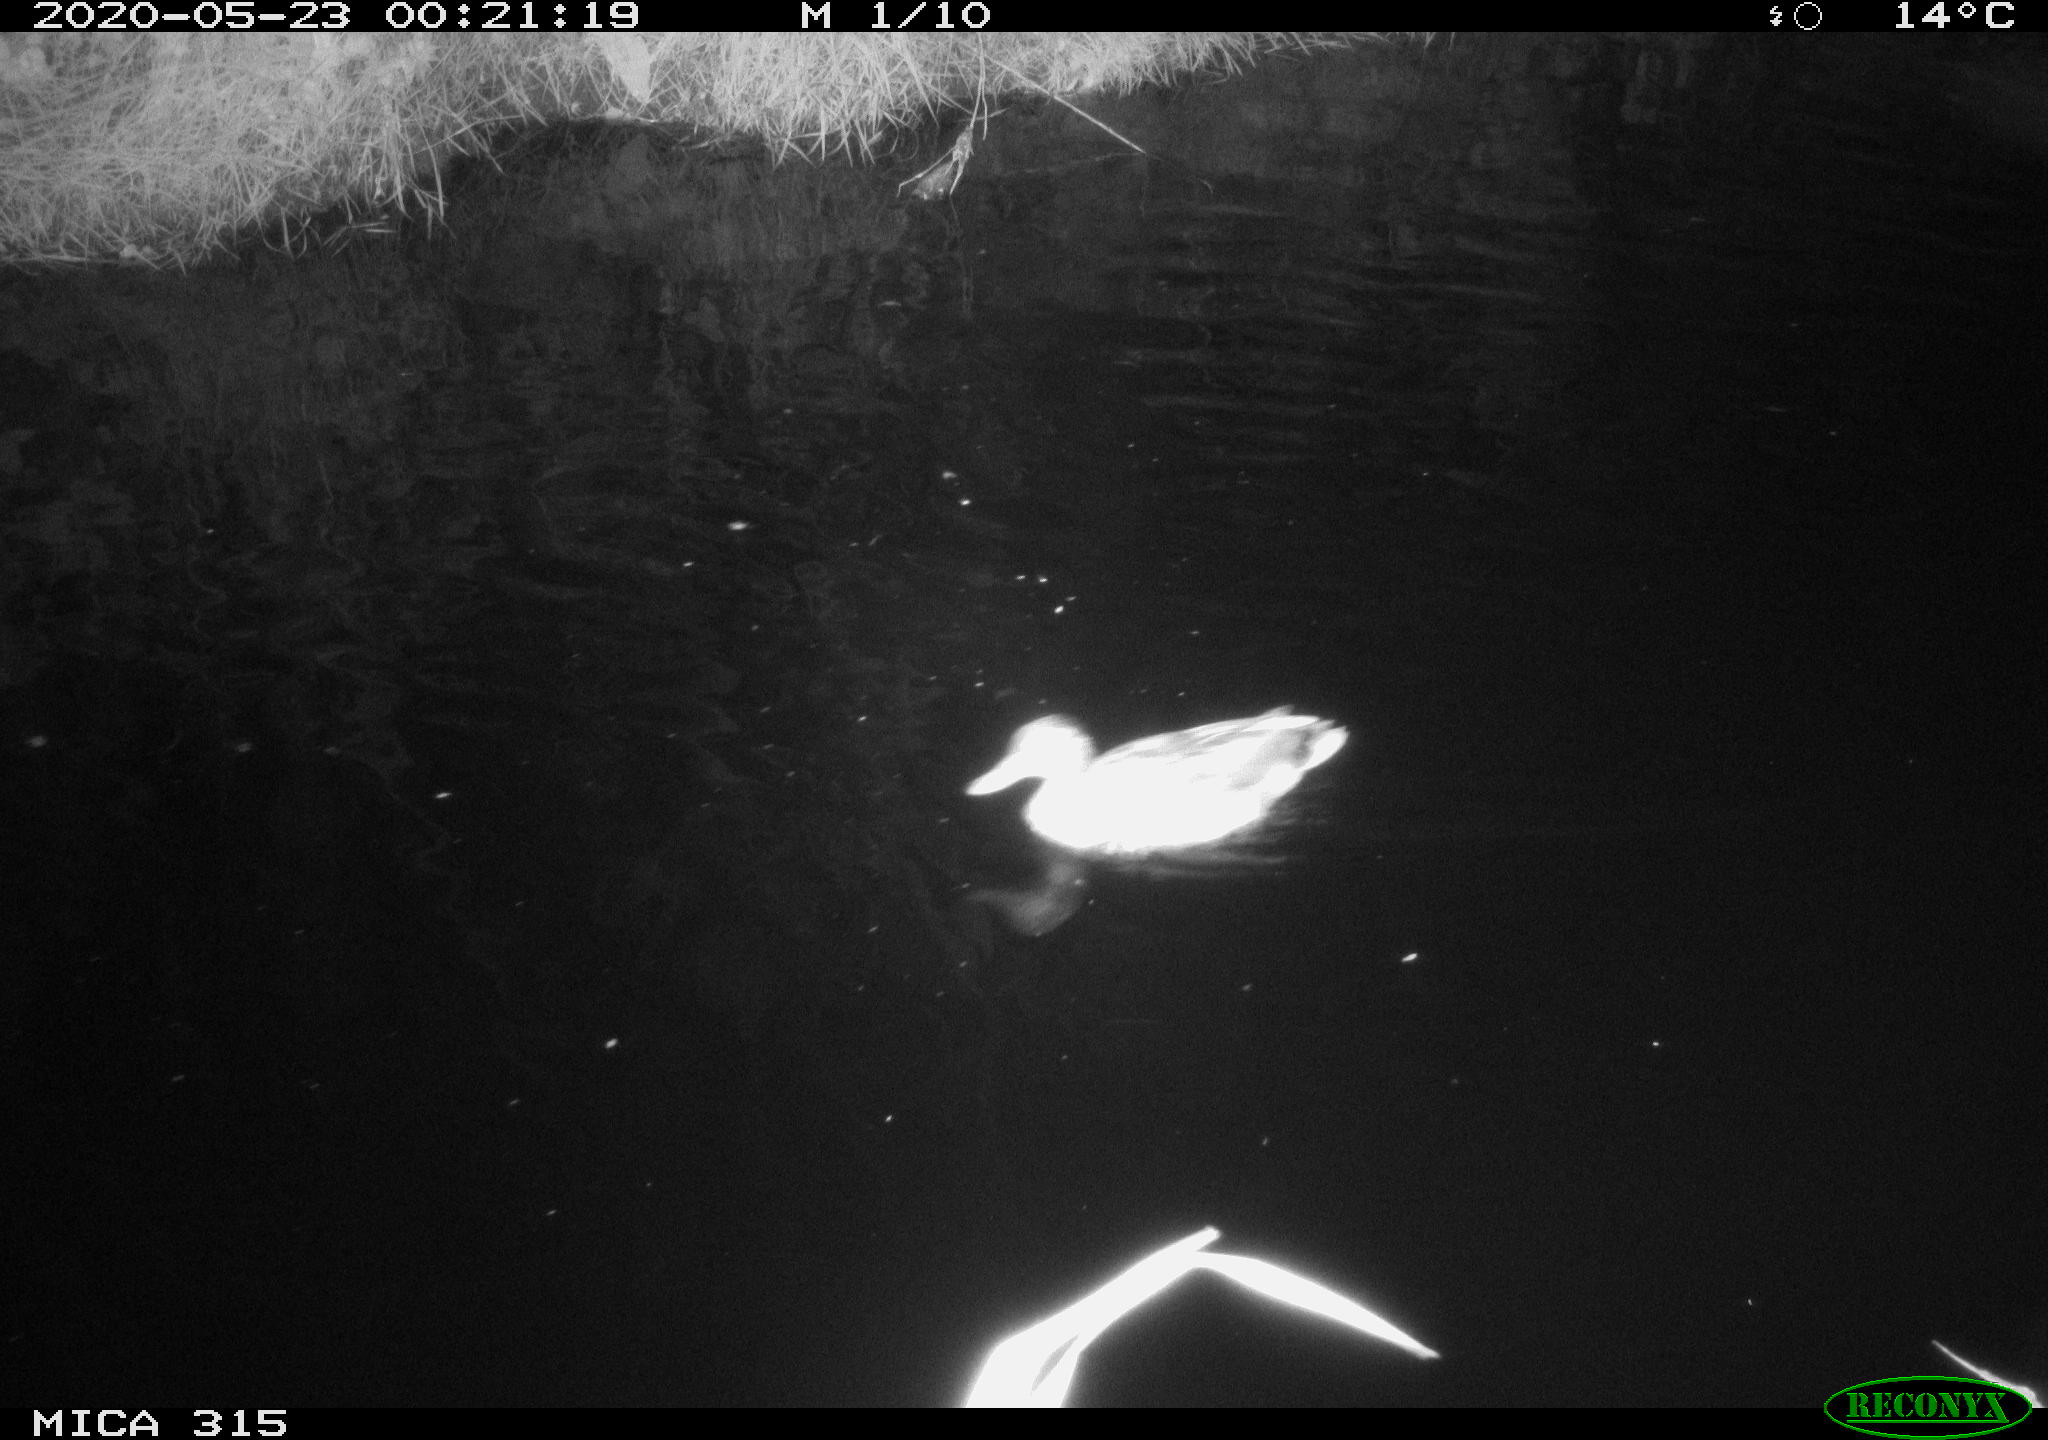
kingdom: Animalia
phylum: Chordata
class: Aves
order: Anseriformes
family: Anatidae
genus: Anas
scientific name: Anas platyrhynchos
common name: Mallard
